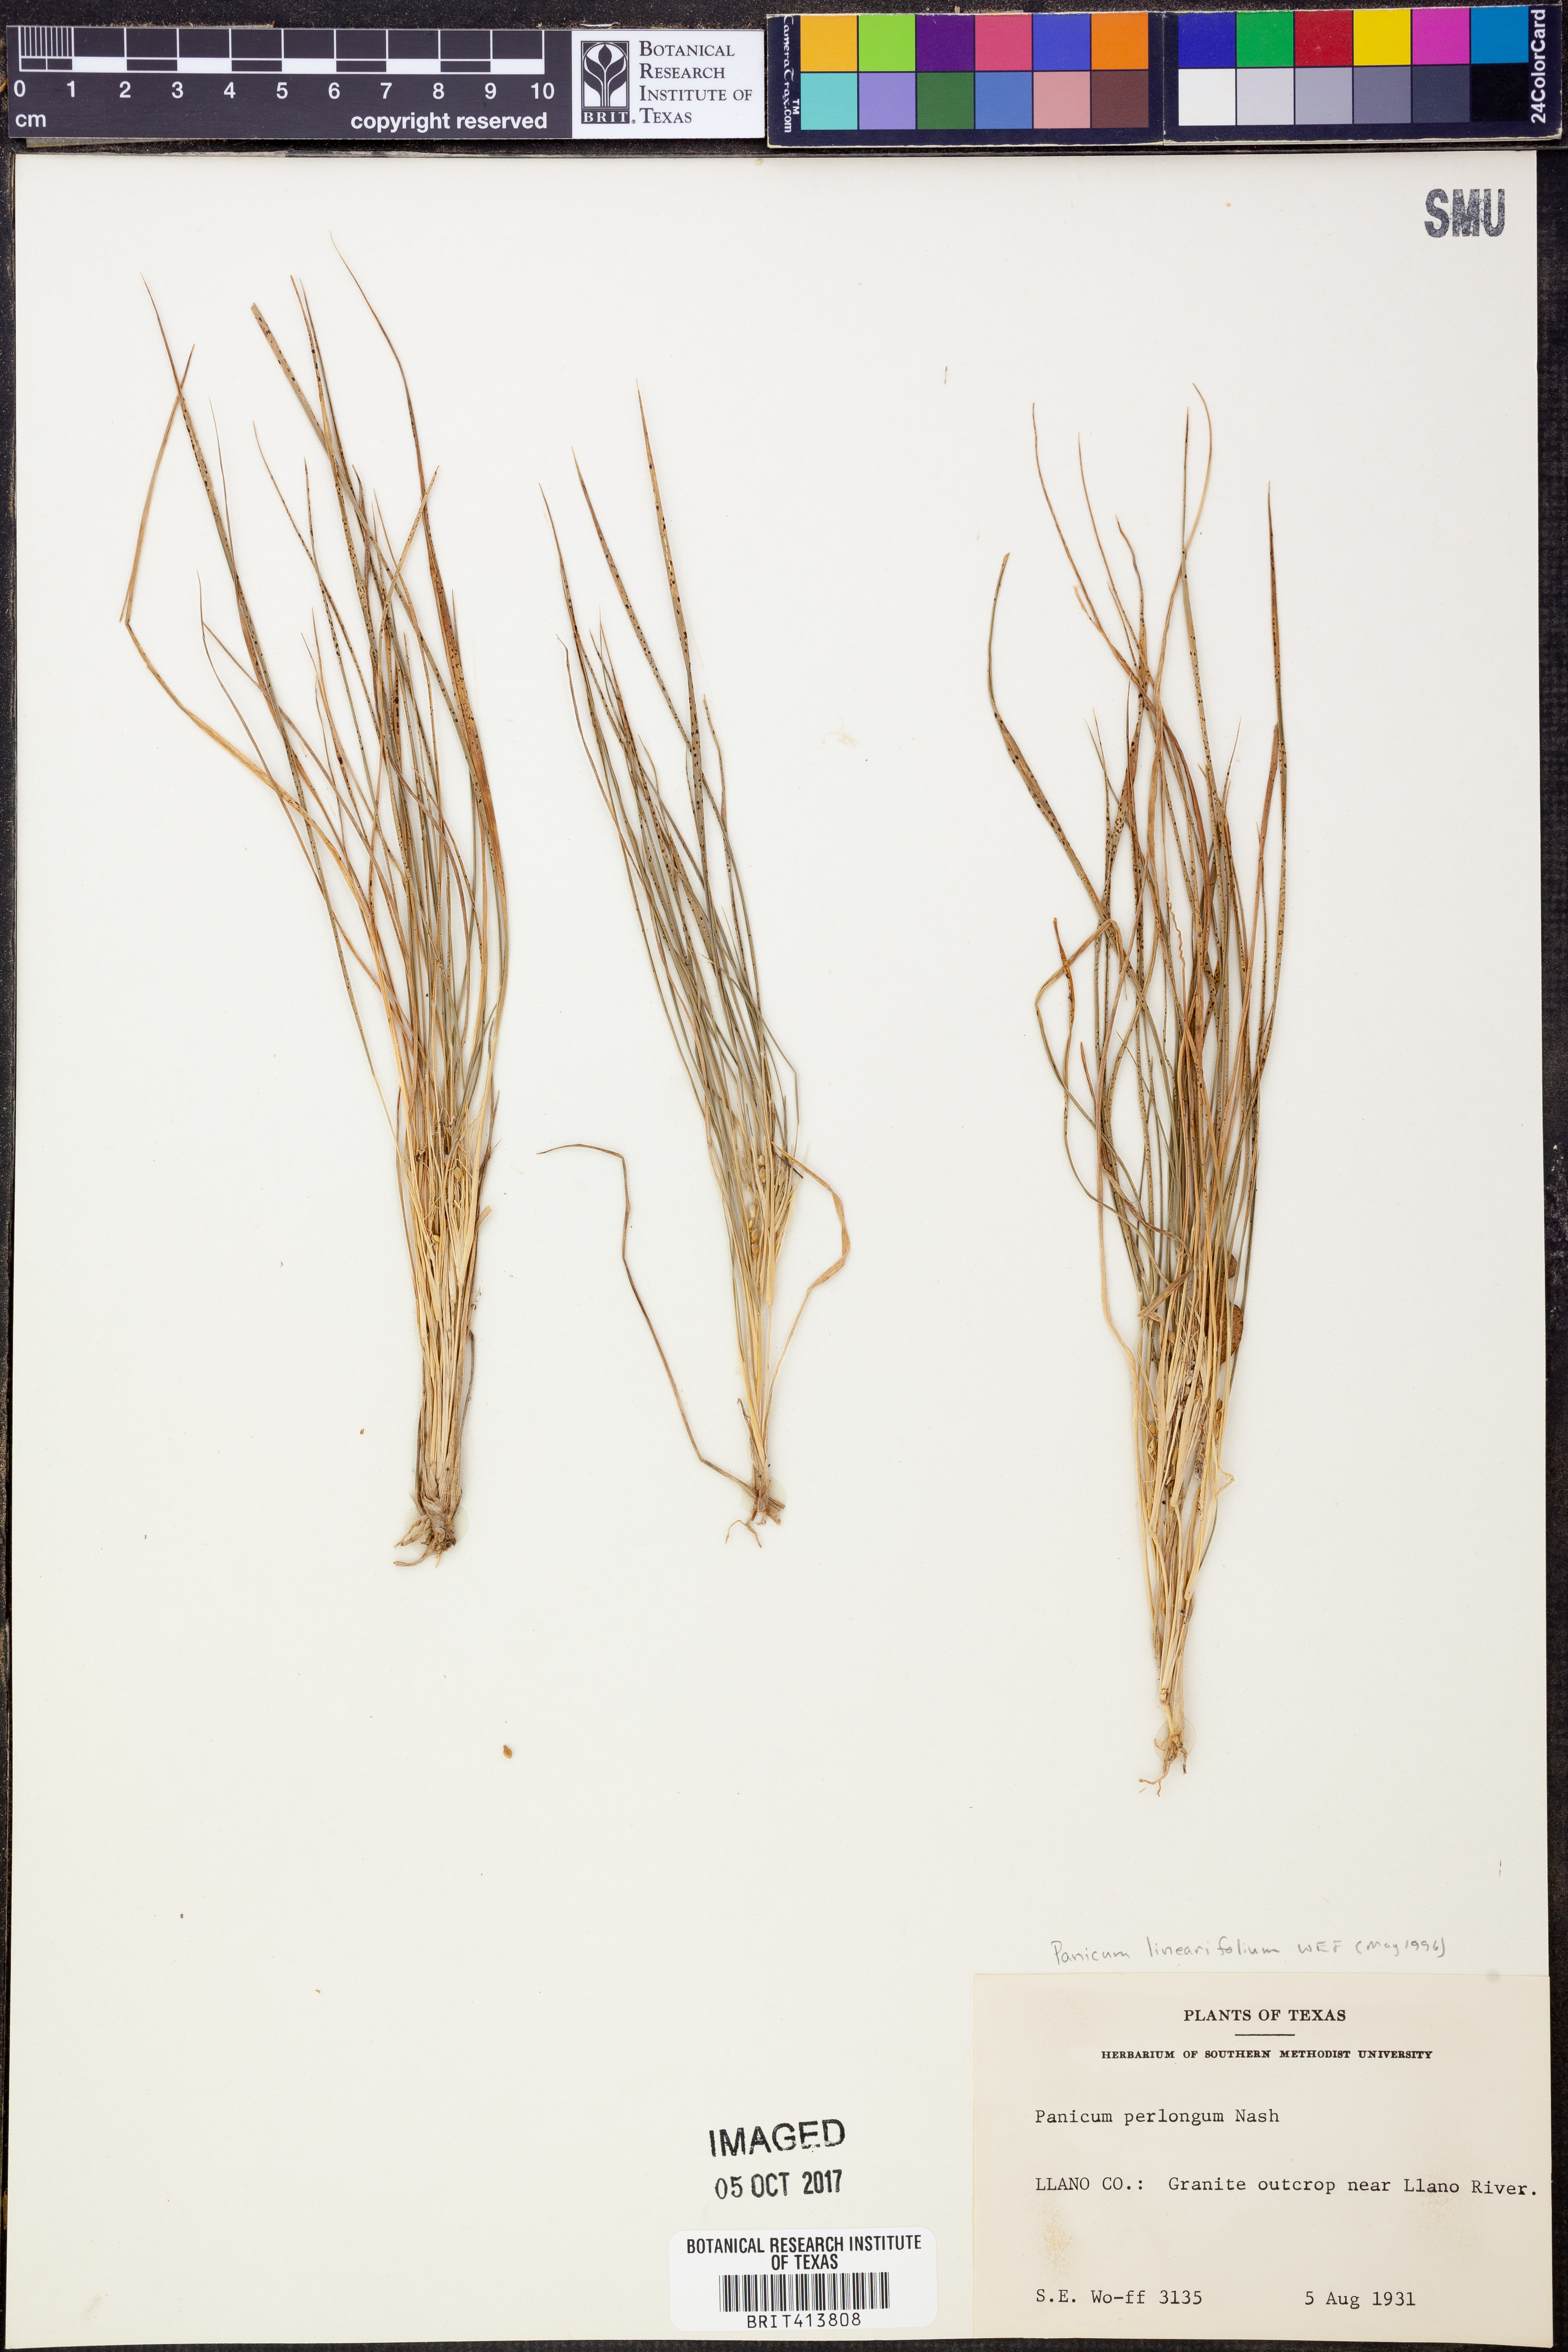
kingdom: Plantae
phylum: Tracheophyta
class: Liliopsida
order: Poales
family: Poaceae
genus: Dichanthelium
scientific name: Dichanthelium linearifolium
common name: Linear-leaved panicgrass
